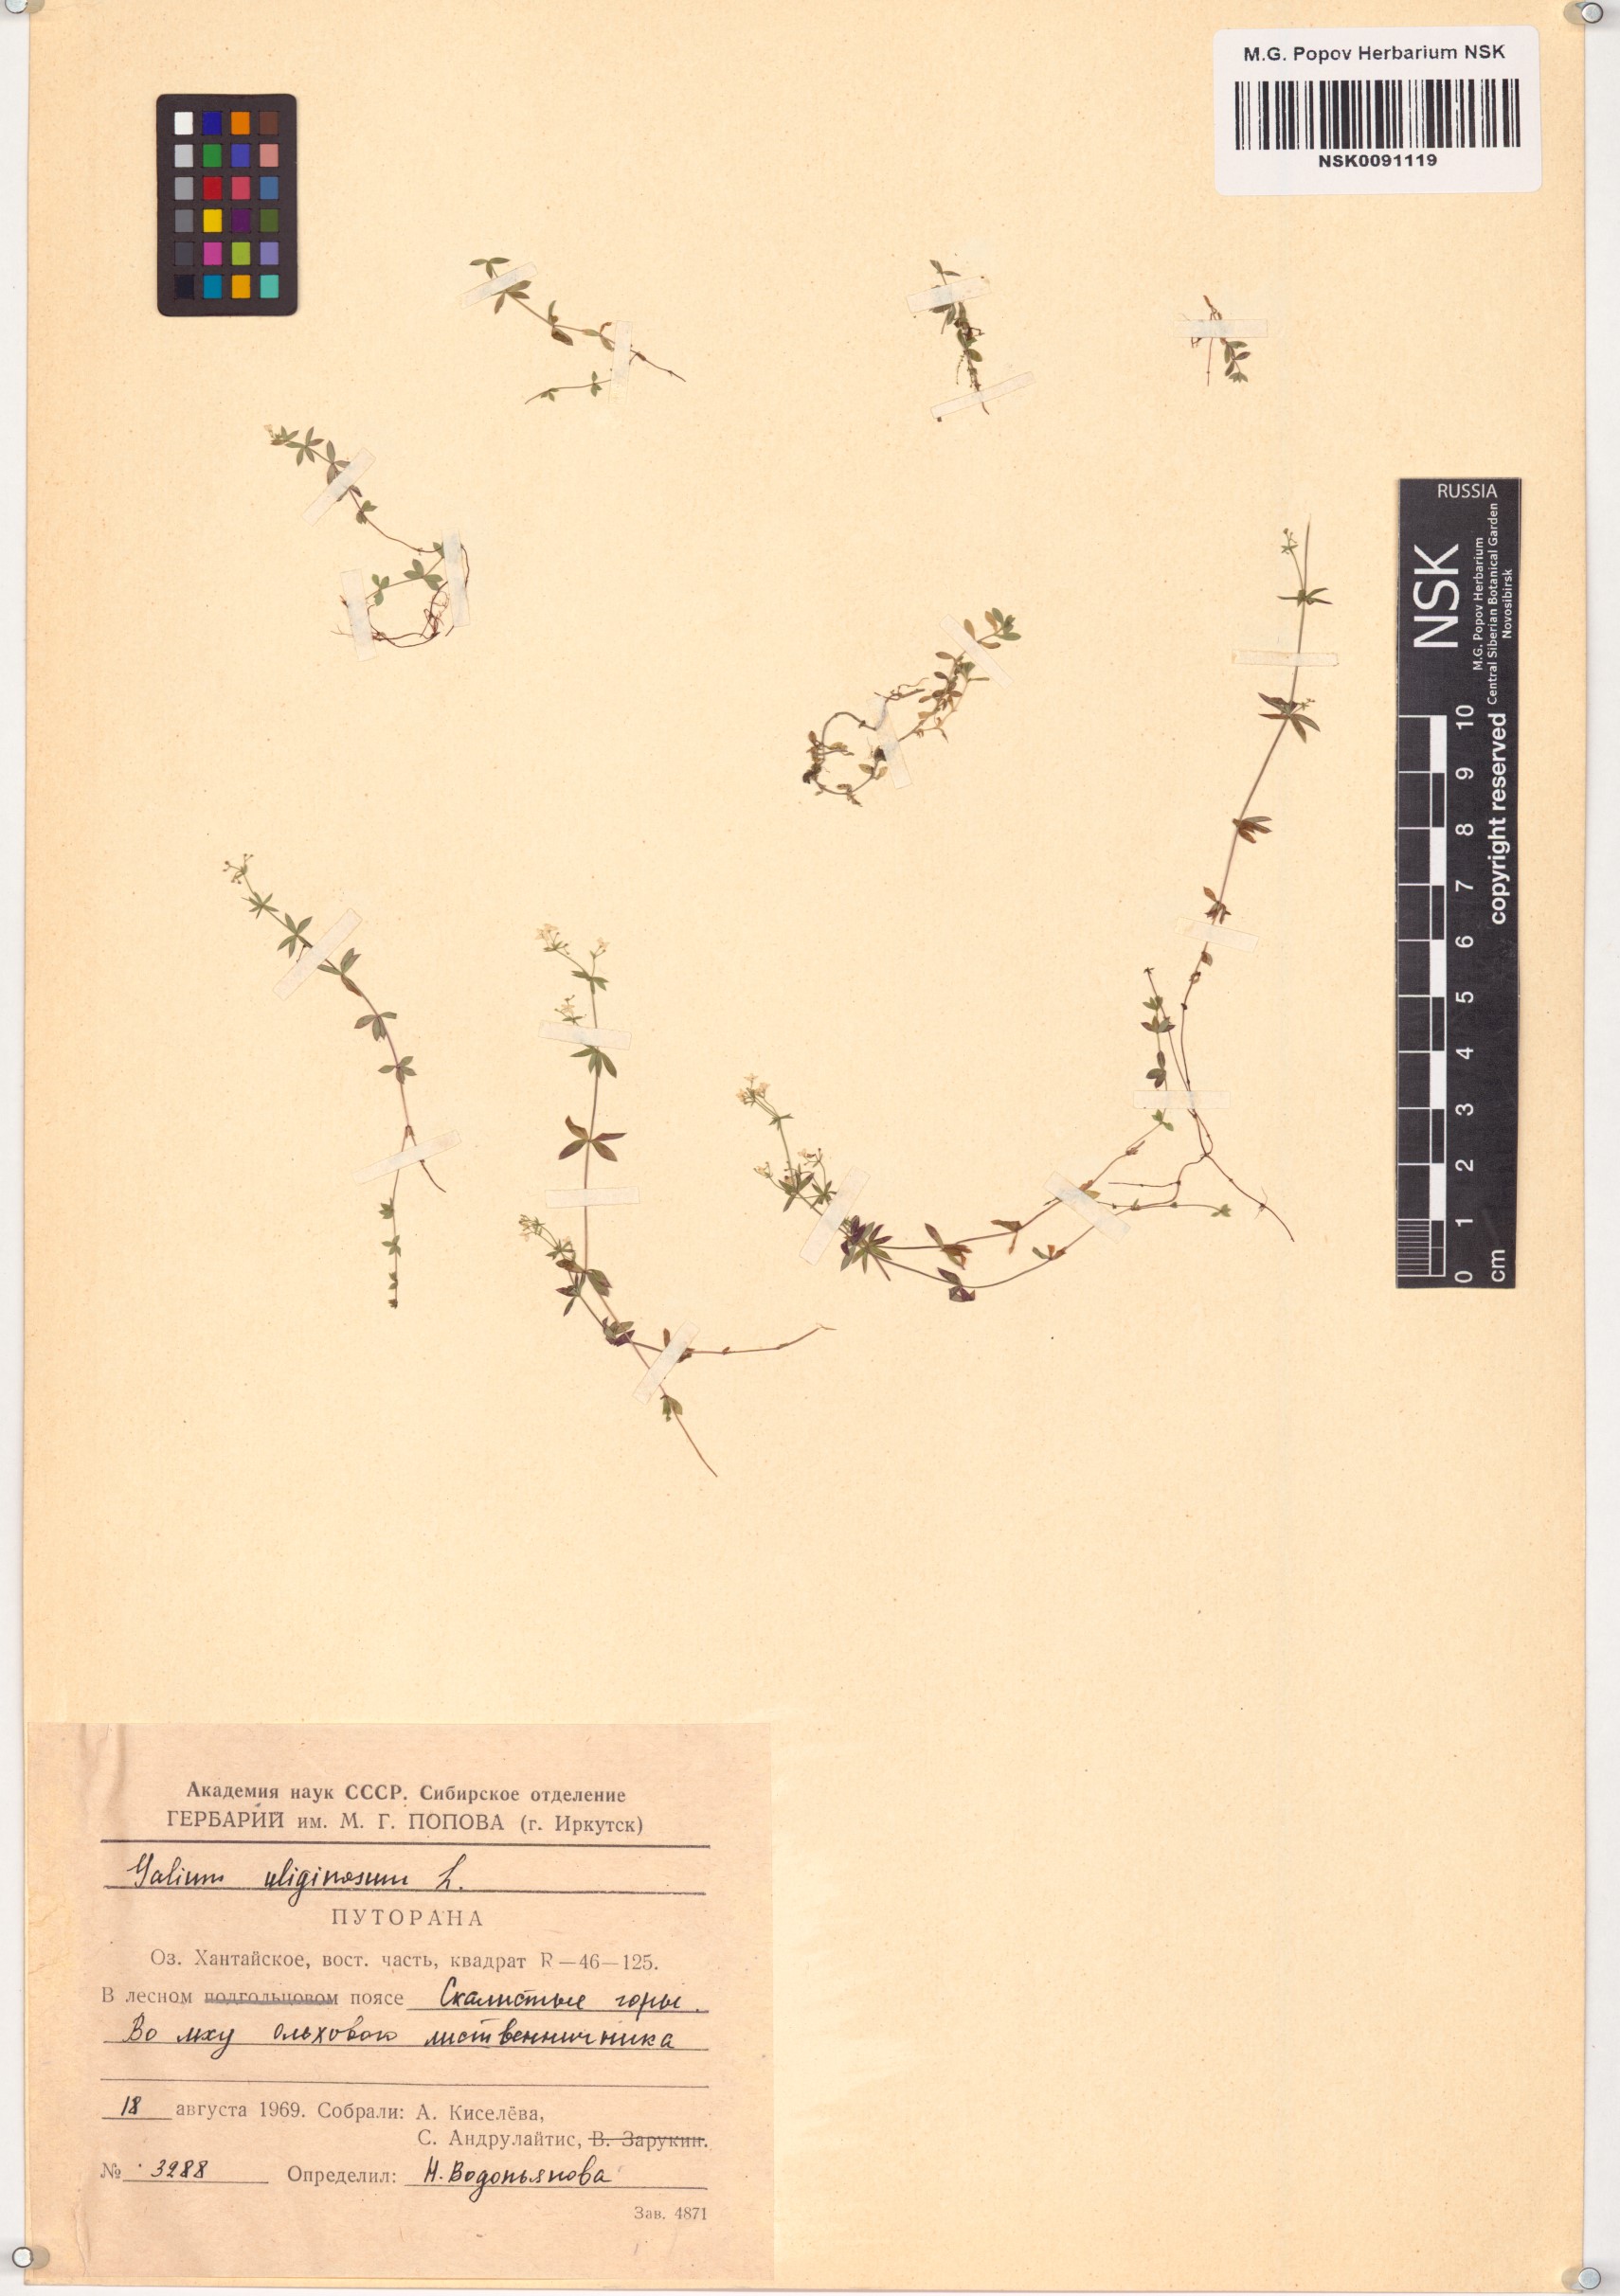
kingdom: Plantae
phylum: Tracheophyta
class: Magnoliopsida
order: Gentianales
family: Rubiaceae
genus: Galium
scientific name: Galium uliginosum
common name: Fen bedstraw
